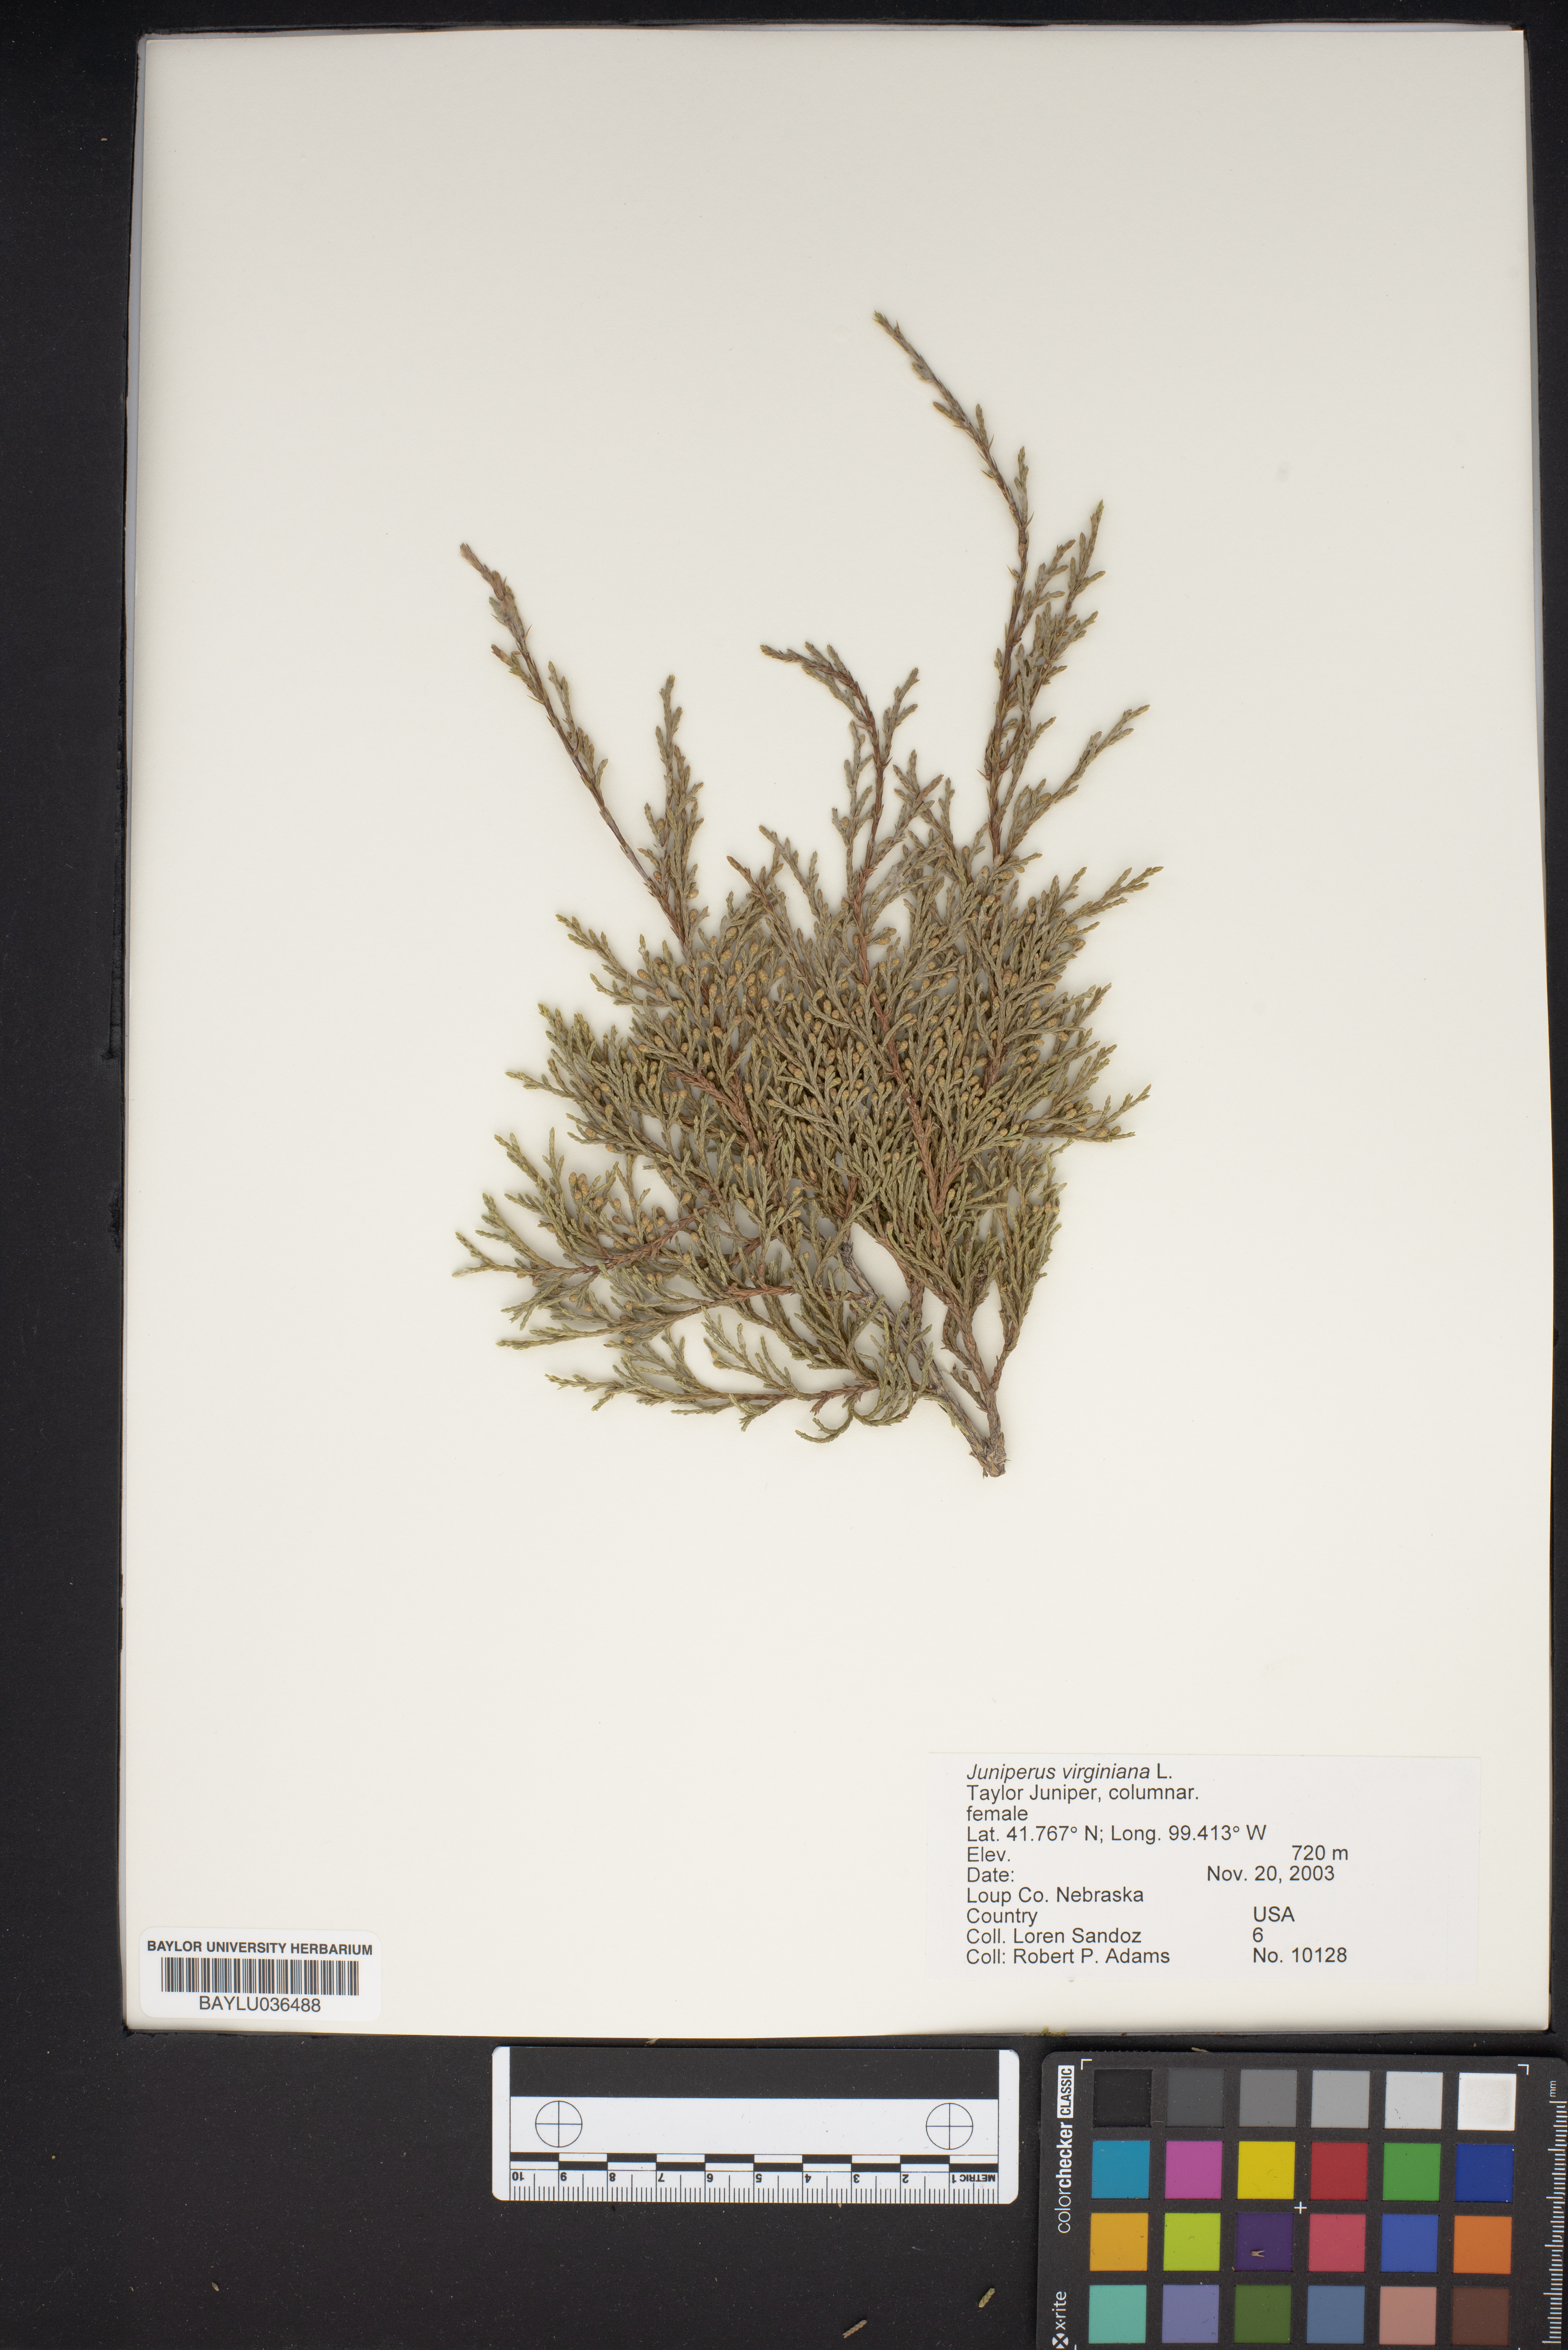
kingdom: Plantae
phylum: Tracheophyta
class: Pinopsida
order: Pinales
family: Cupressaceae
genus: Juniperus
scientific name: Juniperus virginiana
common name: Red juniper
